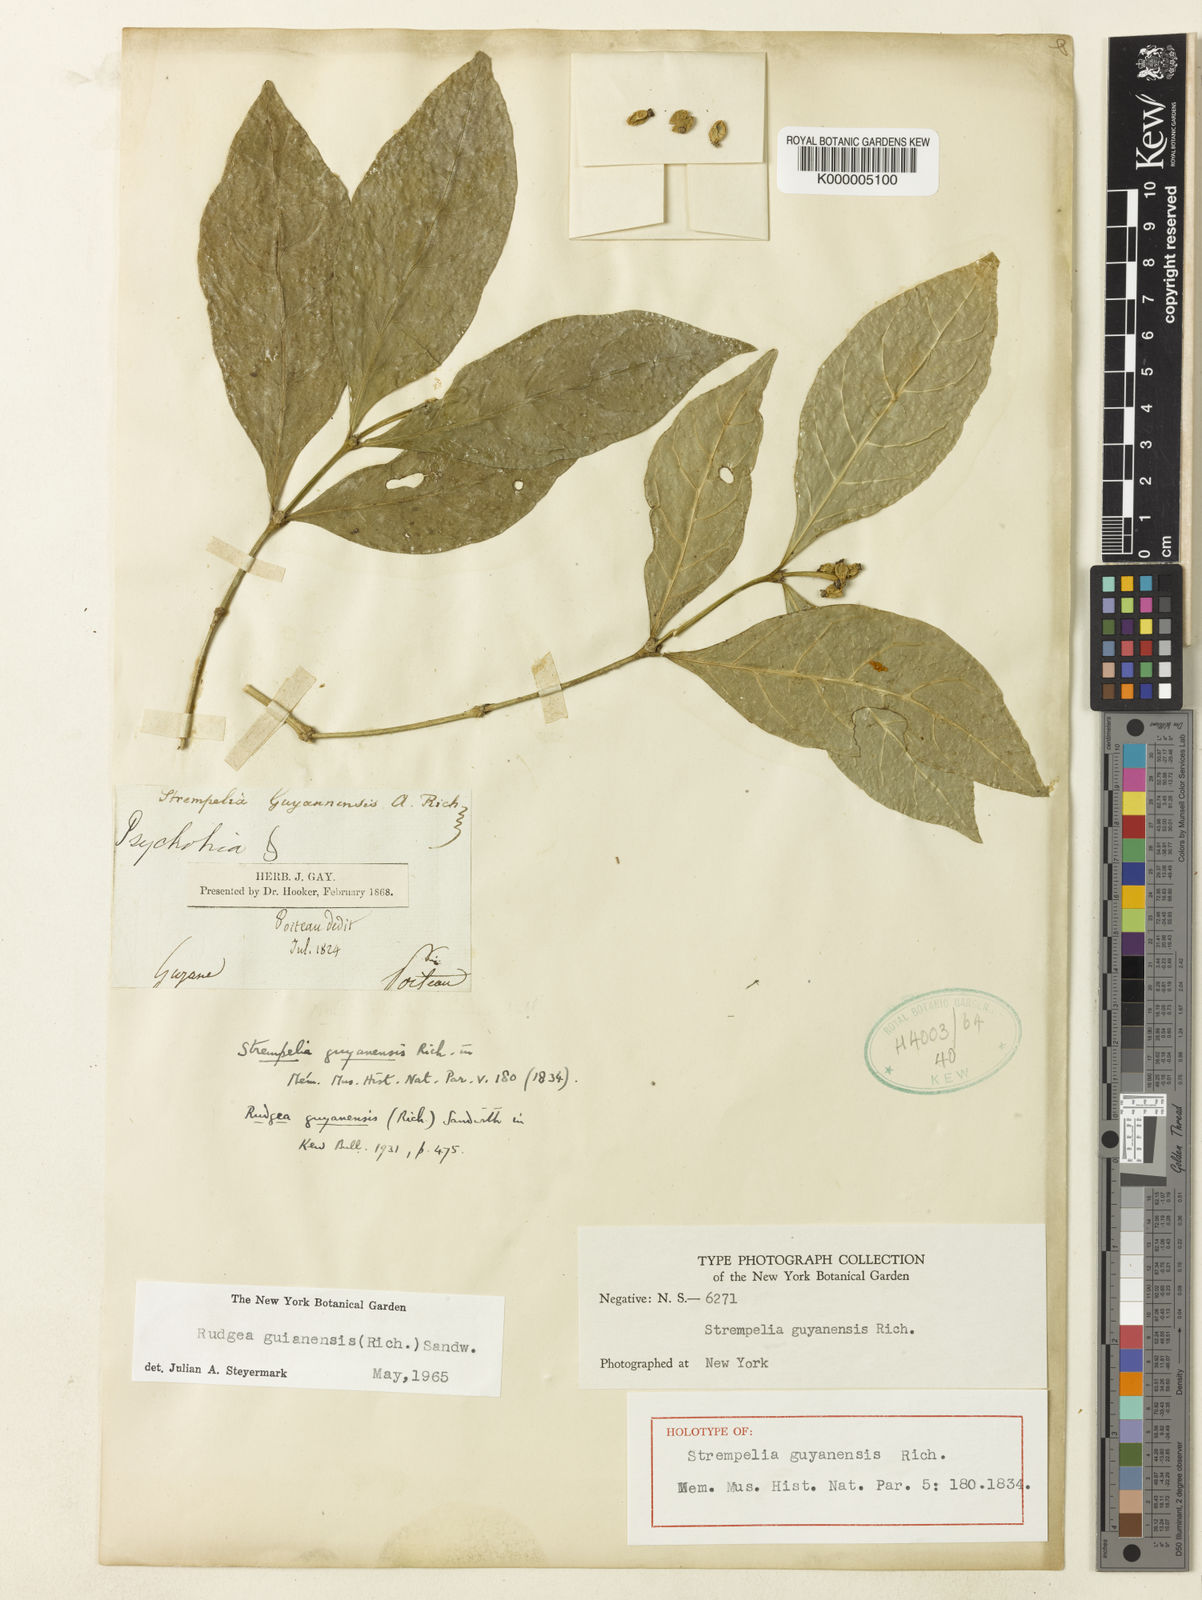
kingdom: Plantae
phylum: Tracheophyta
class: Magnoliopsida
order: Gentianales
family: Rubiaceae
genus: Rudgea
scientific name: Rudgea guianensis
